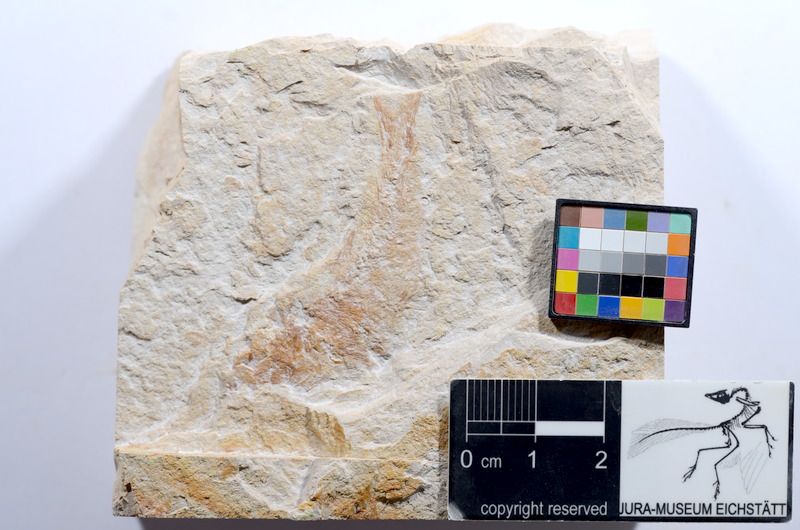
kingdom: Animalia
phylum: Chordata
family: Ascalaboidae
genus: Tharsis
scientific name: Tharsis dubius
